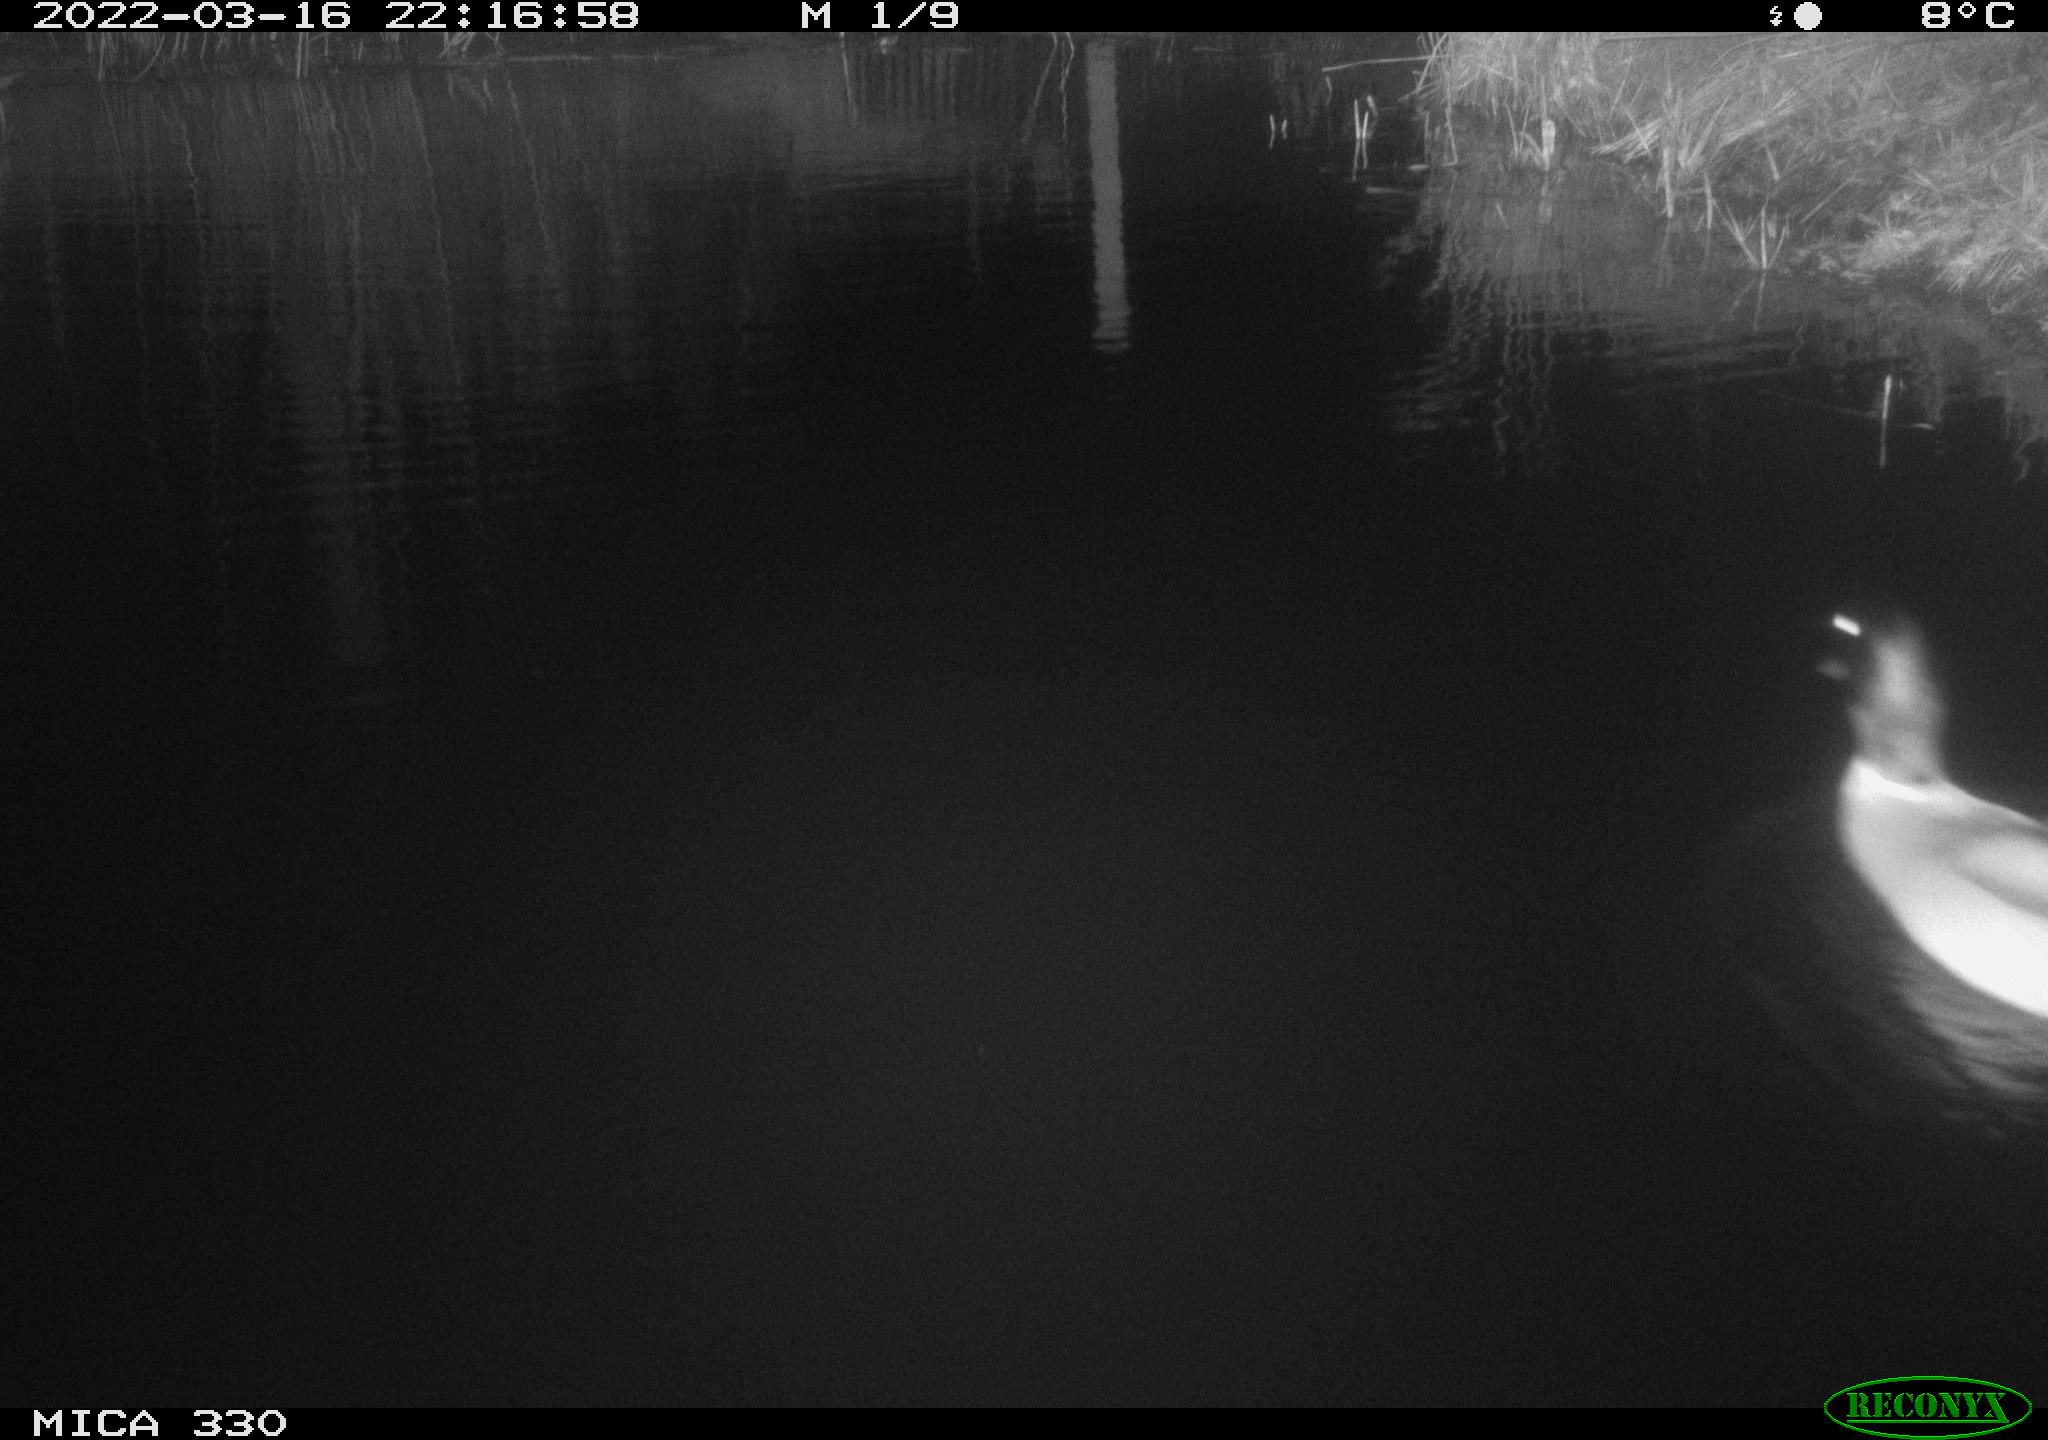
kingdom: Animalia
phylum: Chordata
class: Aves
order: Anseriformes
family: Anatidae
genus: Anas
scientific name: Anas platyrhynchos
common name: Mallard
